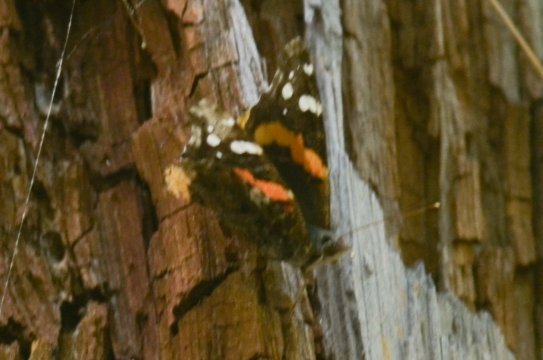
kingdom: Animalia
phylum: Arthropoda
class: Insecta
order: Lepidoptera
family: Nymphalidae
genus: Vanessa
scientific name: Vanessa atalanta
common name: Red Admiral
